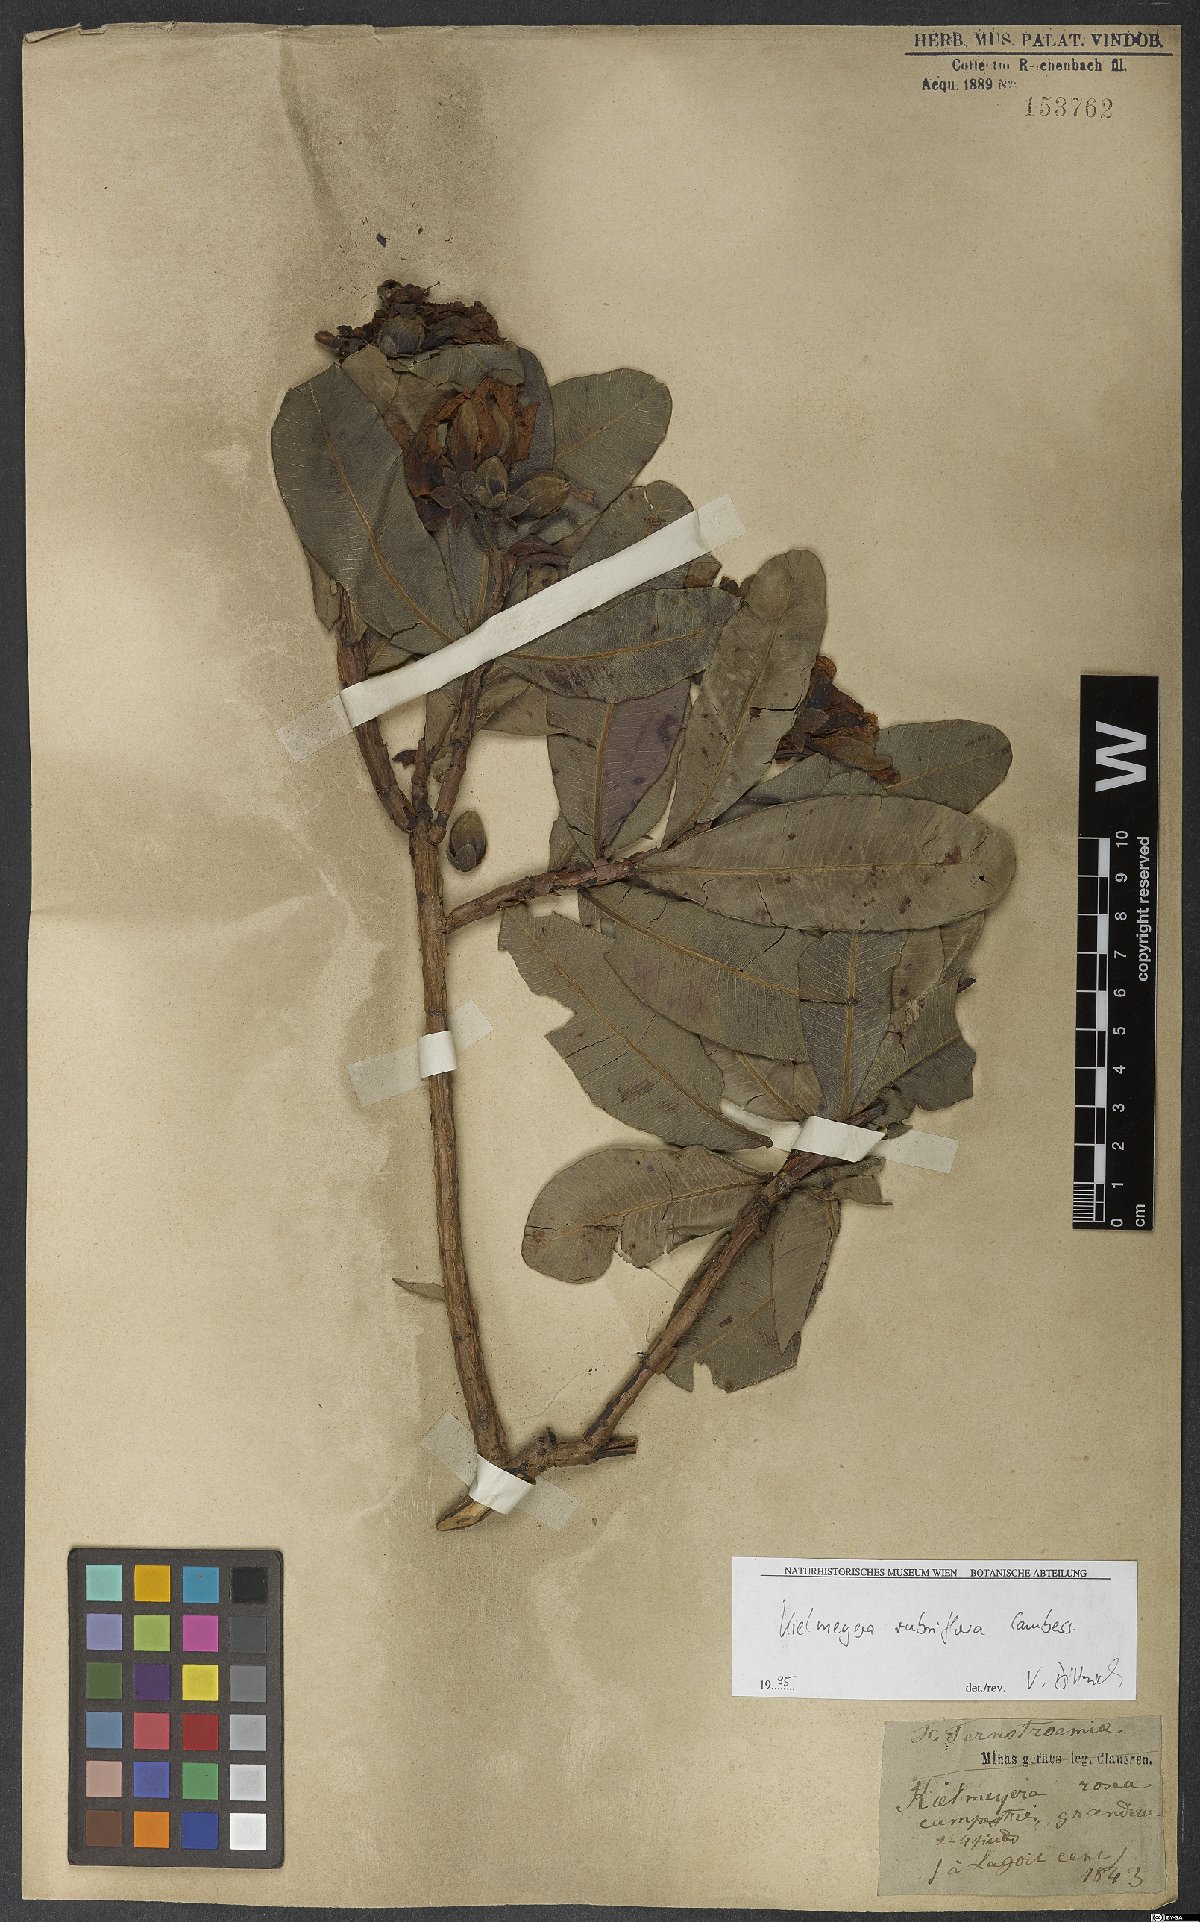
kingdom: Plantae
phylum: Tracheophyta
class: Magnoliopsida
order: Malpighiales
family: Calophyllaceae
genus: Kielmeyera
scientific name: Kielmeyera rubriflora
